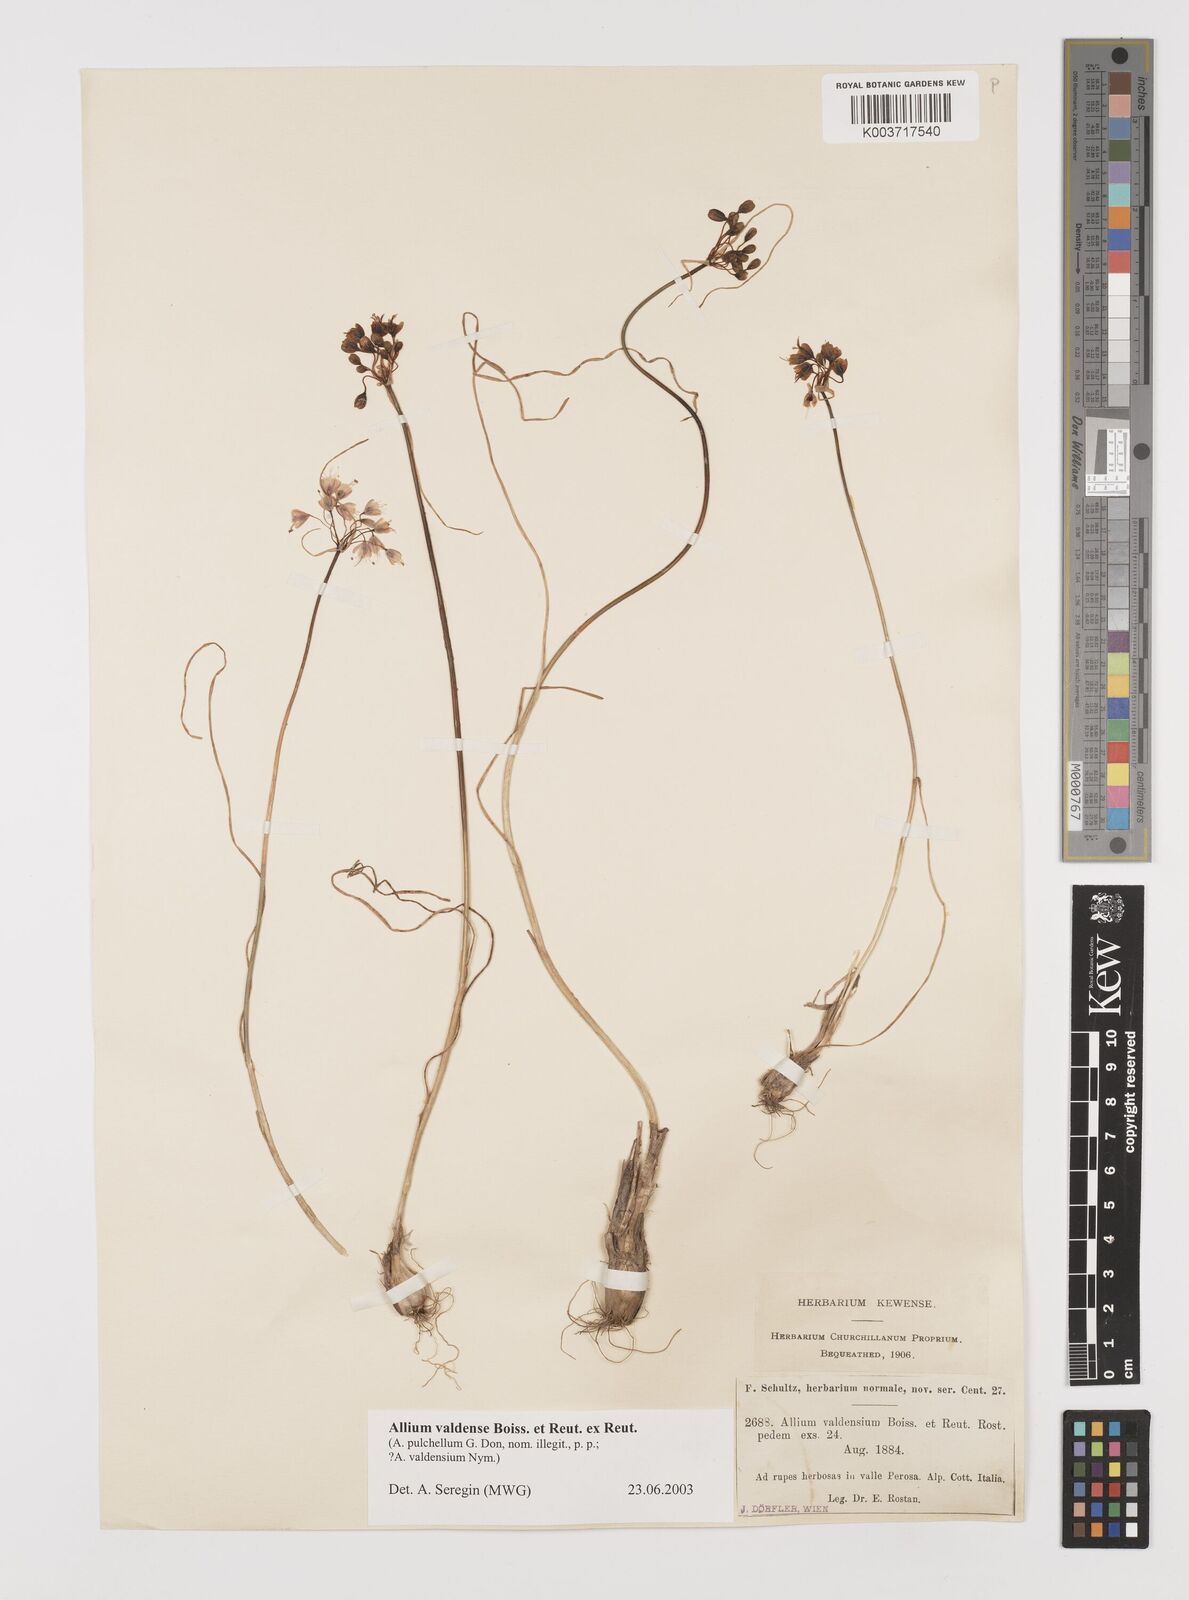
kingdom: Plantae
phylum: Tracheophyta
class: Liliopsida
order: Asparagales
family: Amaryllidaceae
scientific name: Amaryllidaceae
